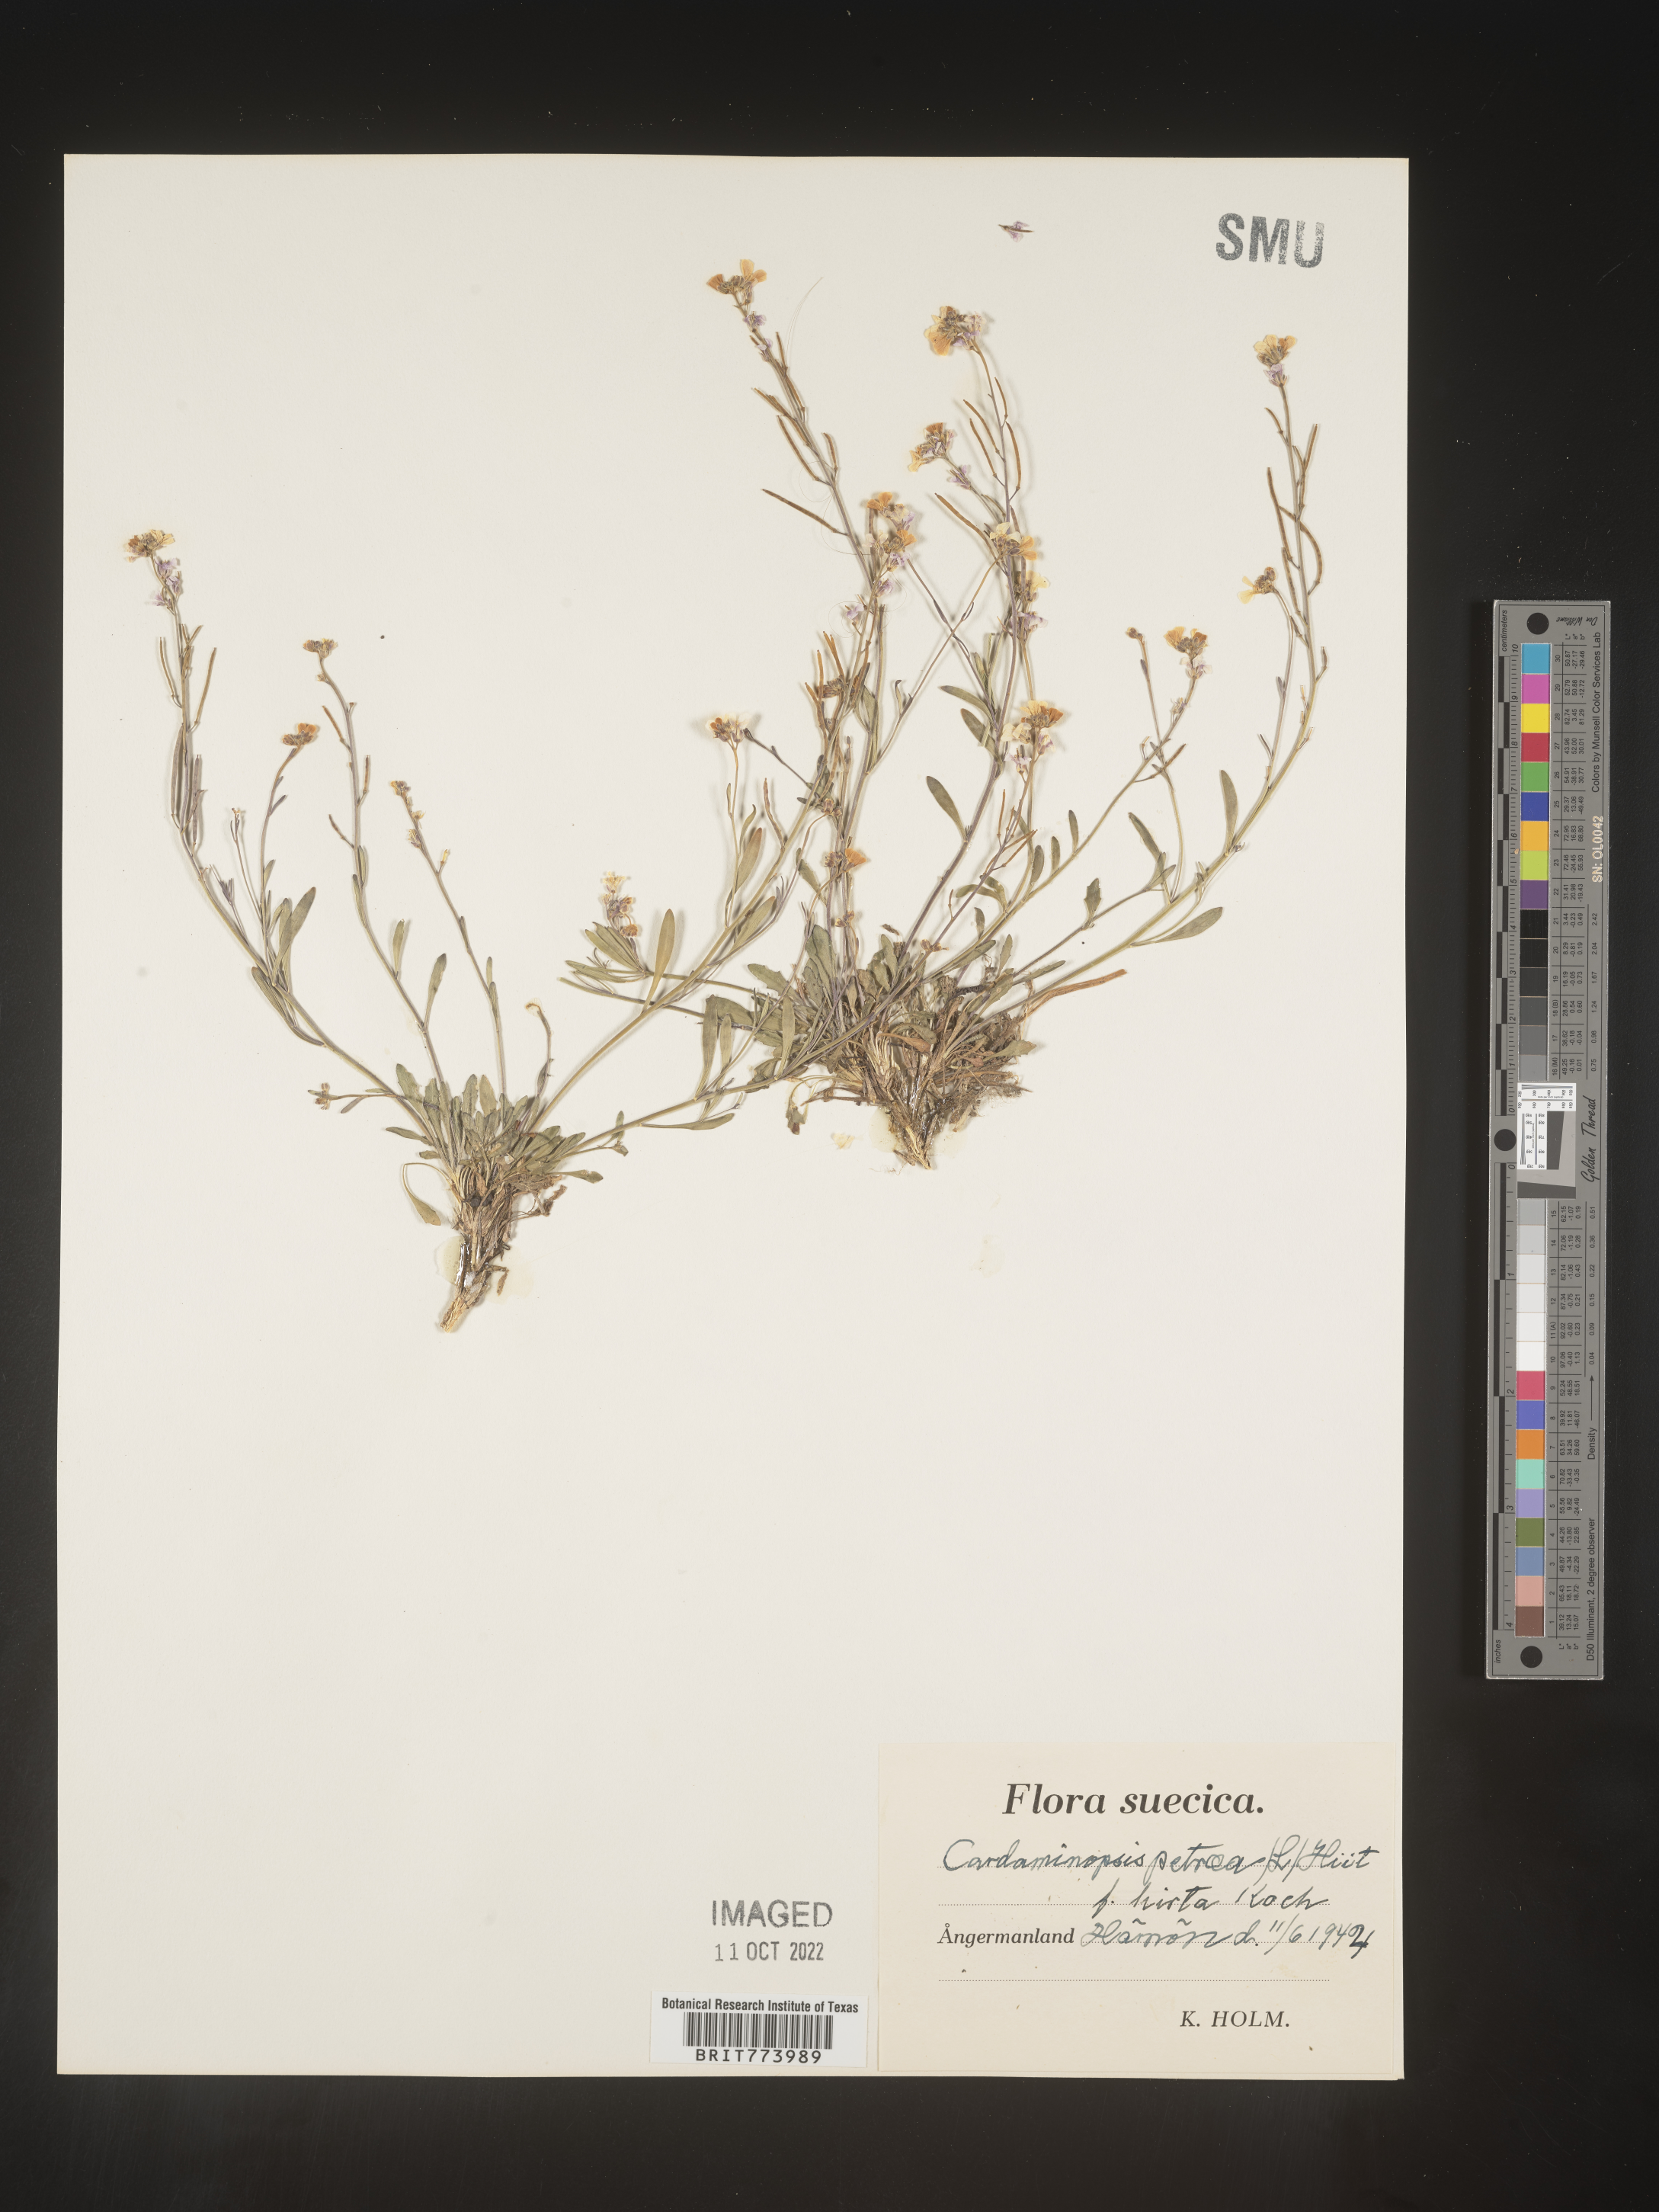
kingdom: Plantae
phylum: Tracheophyta
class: Magnoliopsida
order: Brassicales
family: Brassicaceae
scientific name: Brassicaceae
